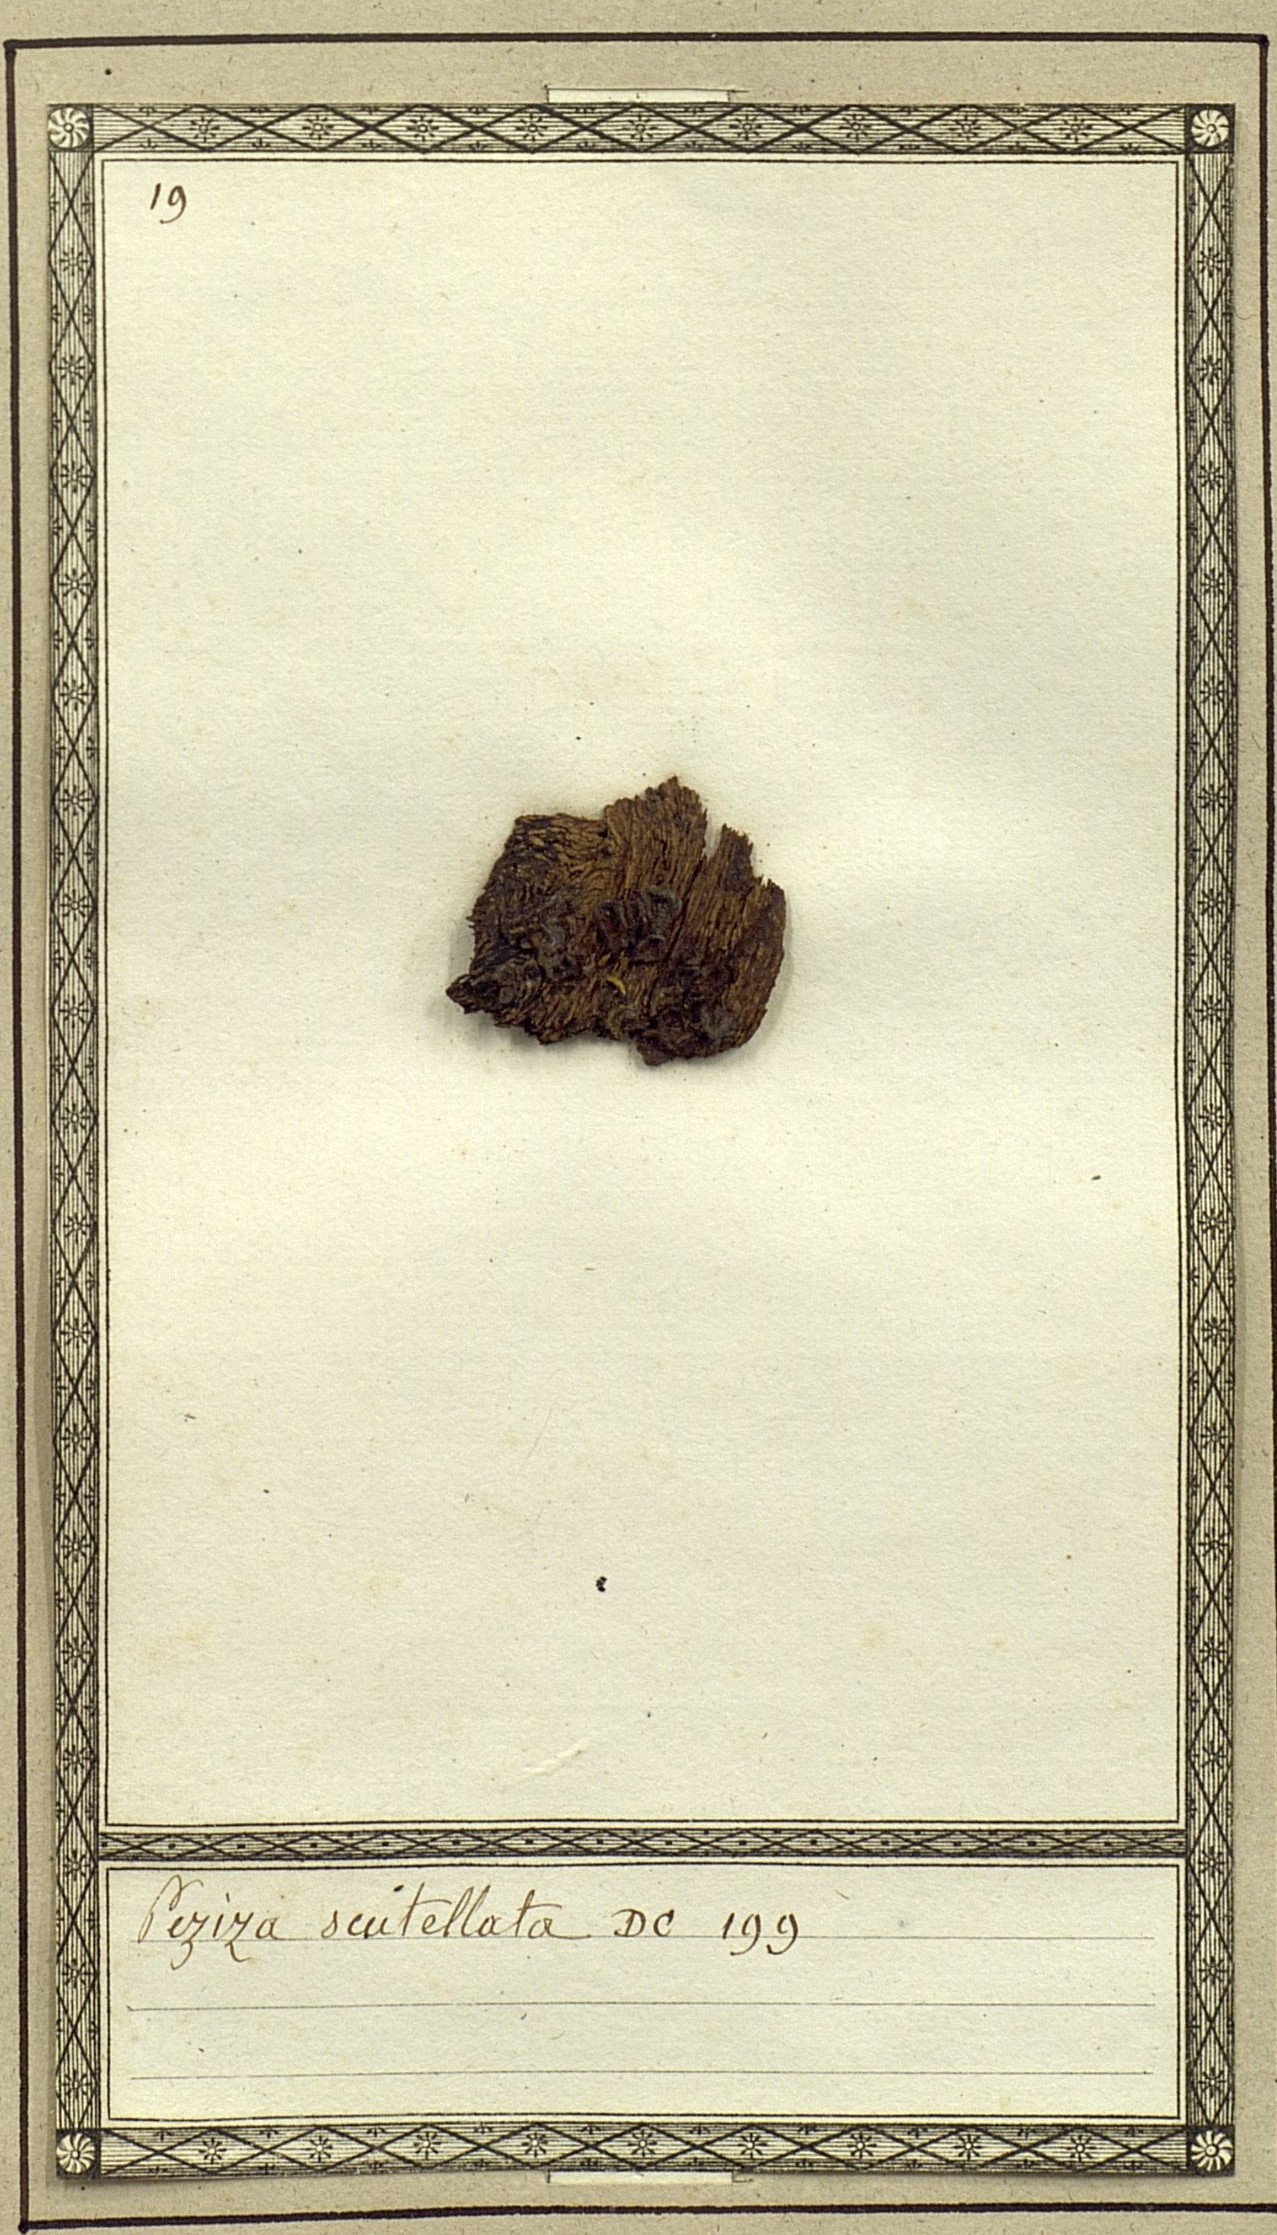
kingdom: Fungi
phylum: Ascomycota
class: Pezizomycetes
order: Pezizales
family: Pyronemataceae
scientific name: Pyronemataceae
